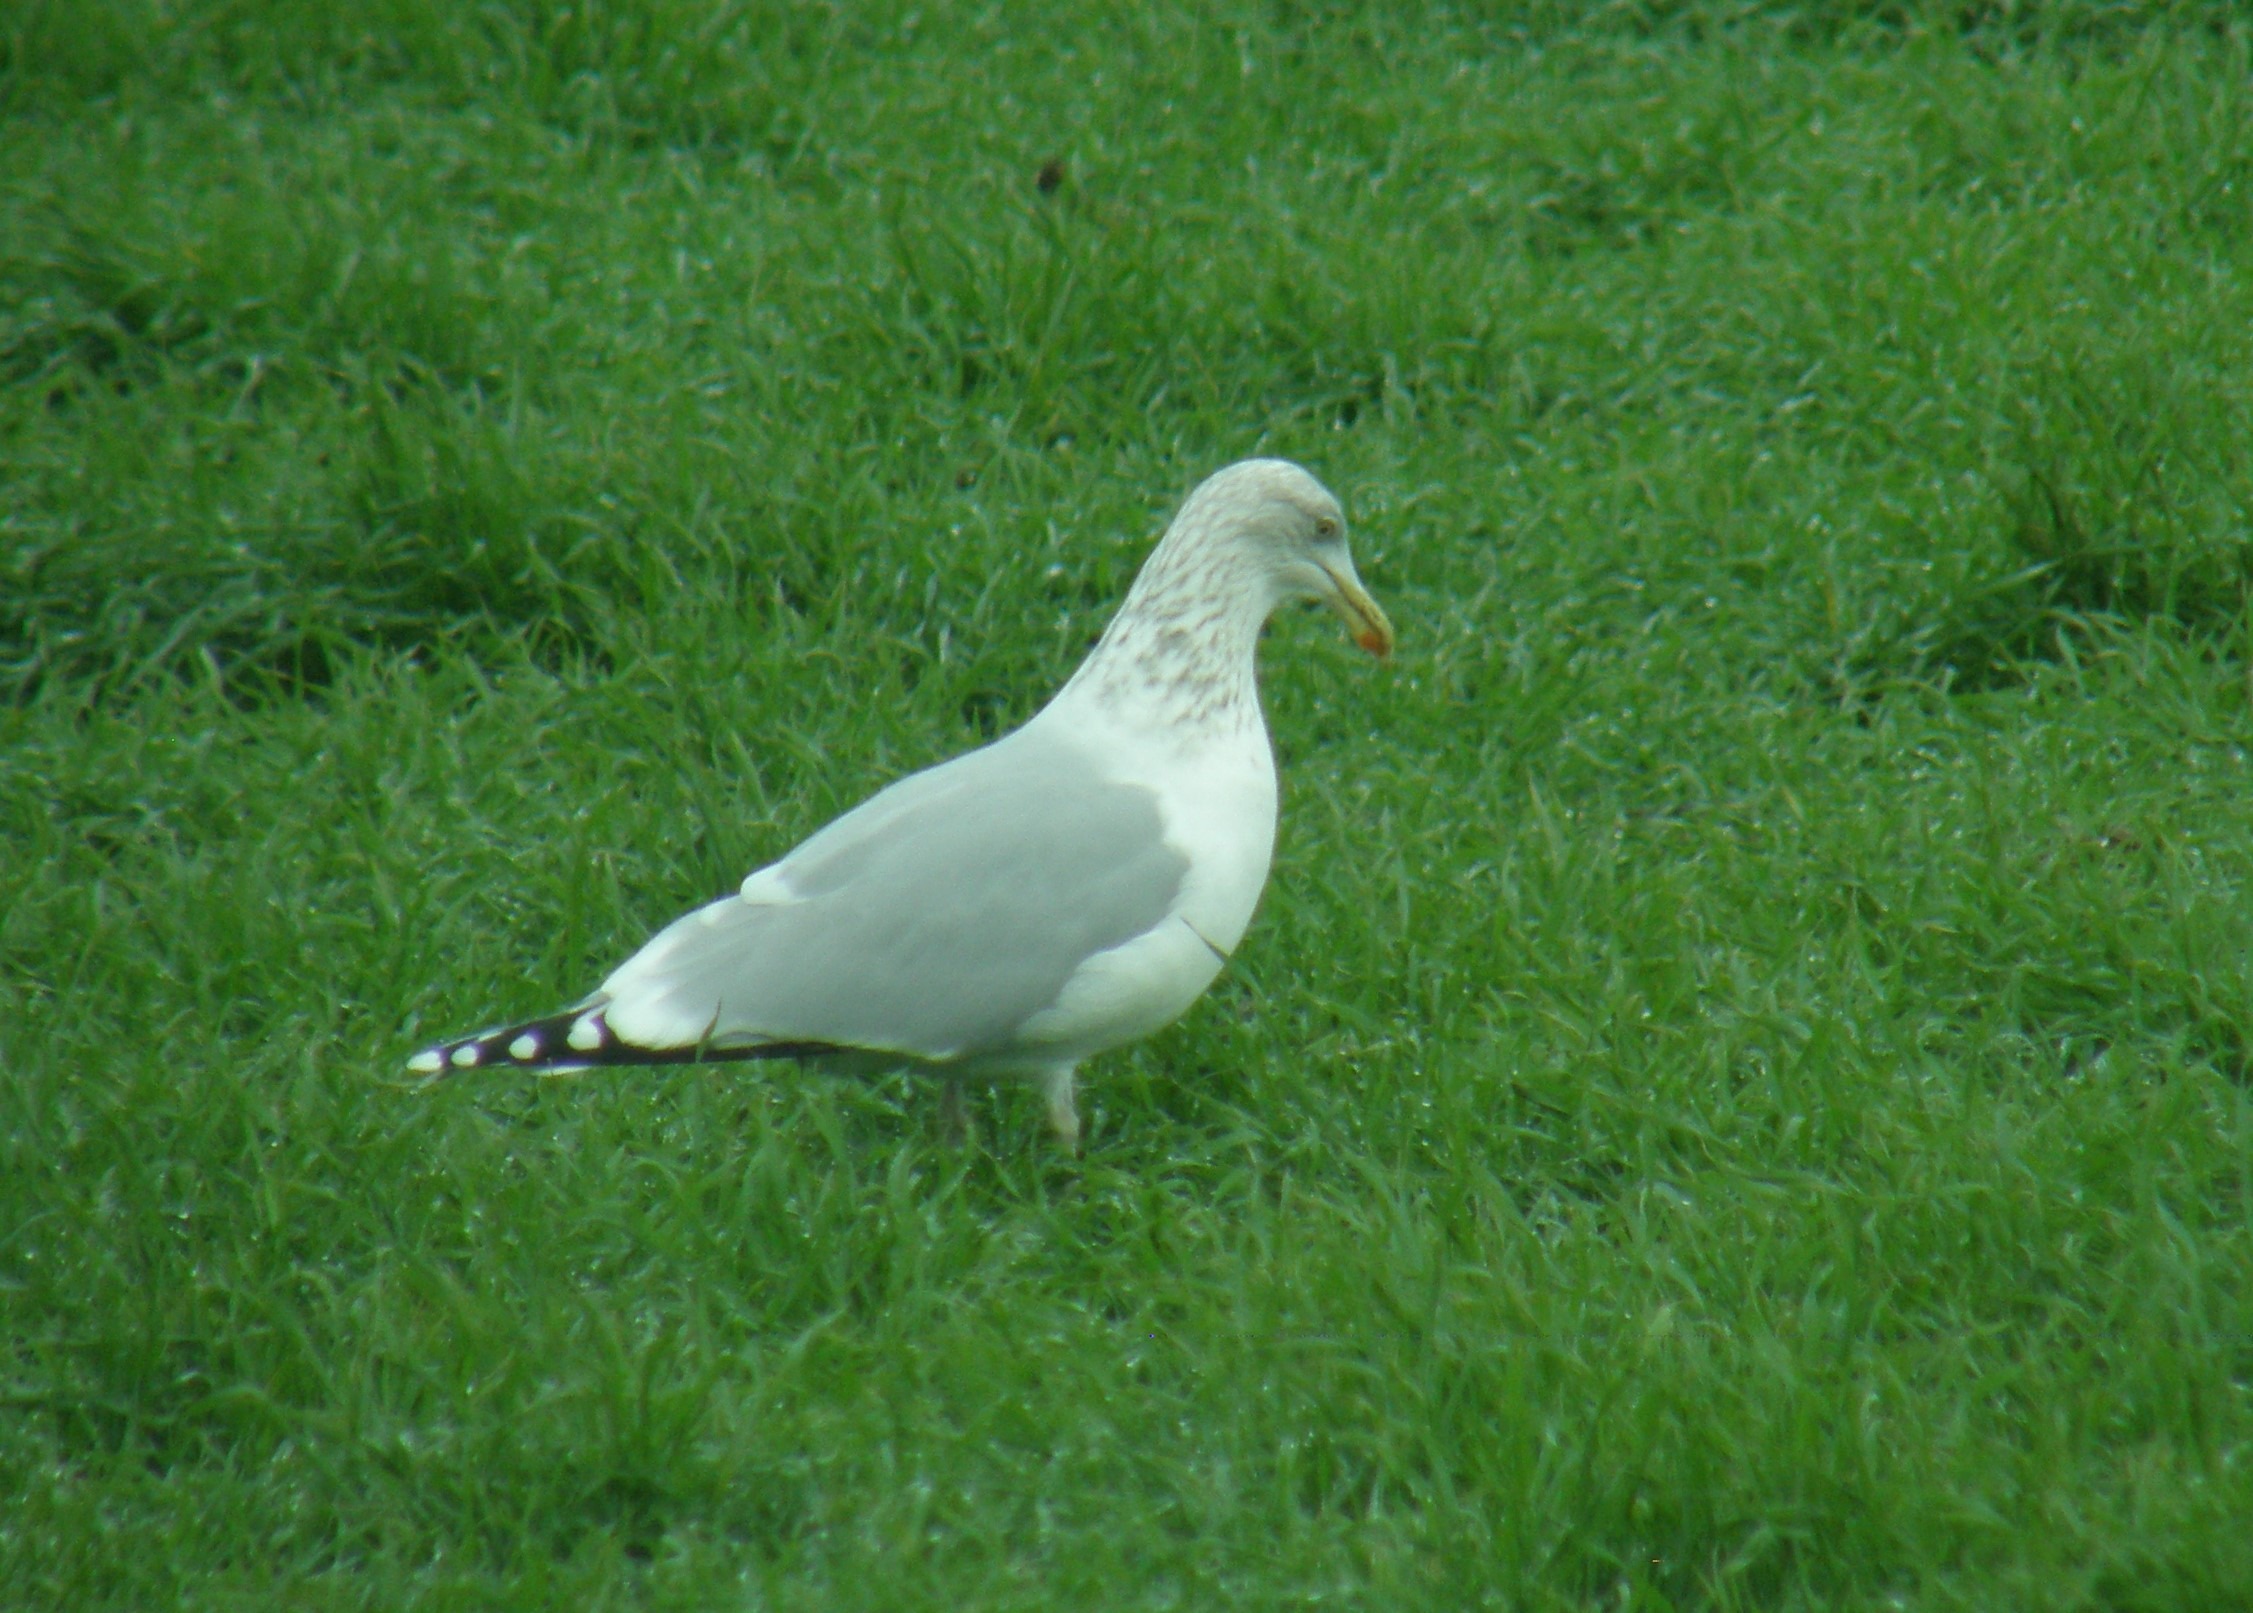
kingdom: Animalia
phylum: Chordata
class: Aves
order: Charadriiformes
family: Laridae
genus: Larus
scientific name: Larus argentatus
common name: Sølvmåge
